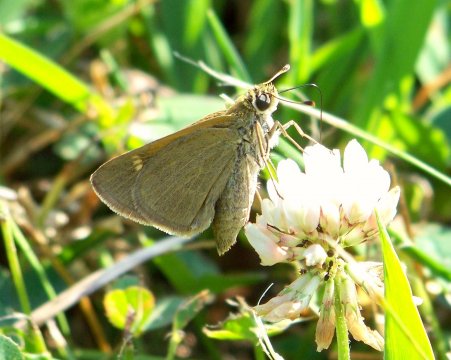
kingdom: Animalia
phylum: Arthropoda
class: Insecta
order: Lepidoptera
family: Hesperiidae
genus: Nastra
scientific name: Nastra lherminier
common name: Swarthy Skipper
